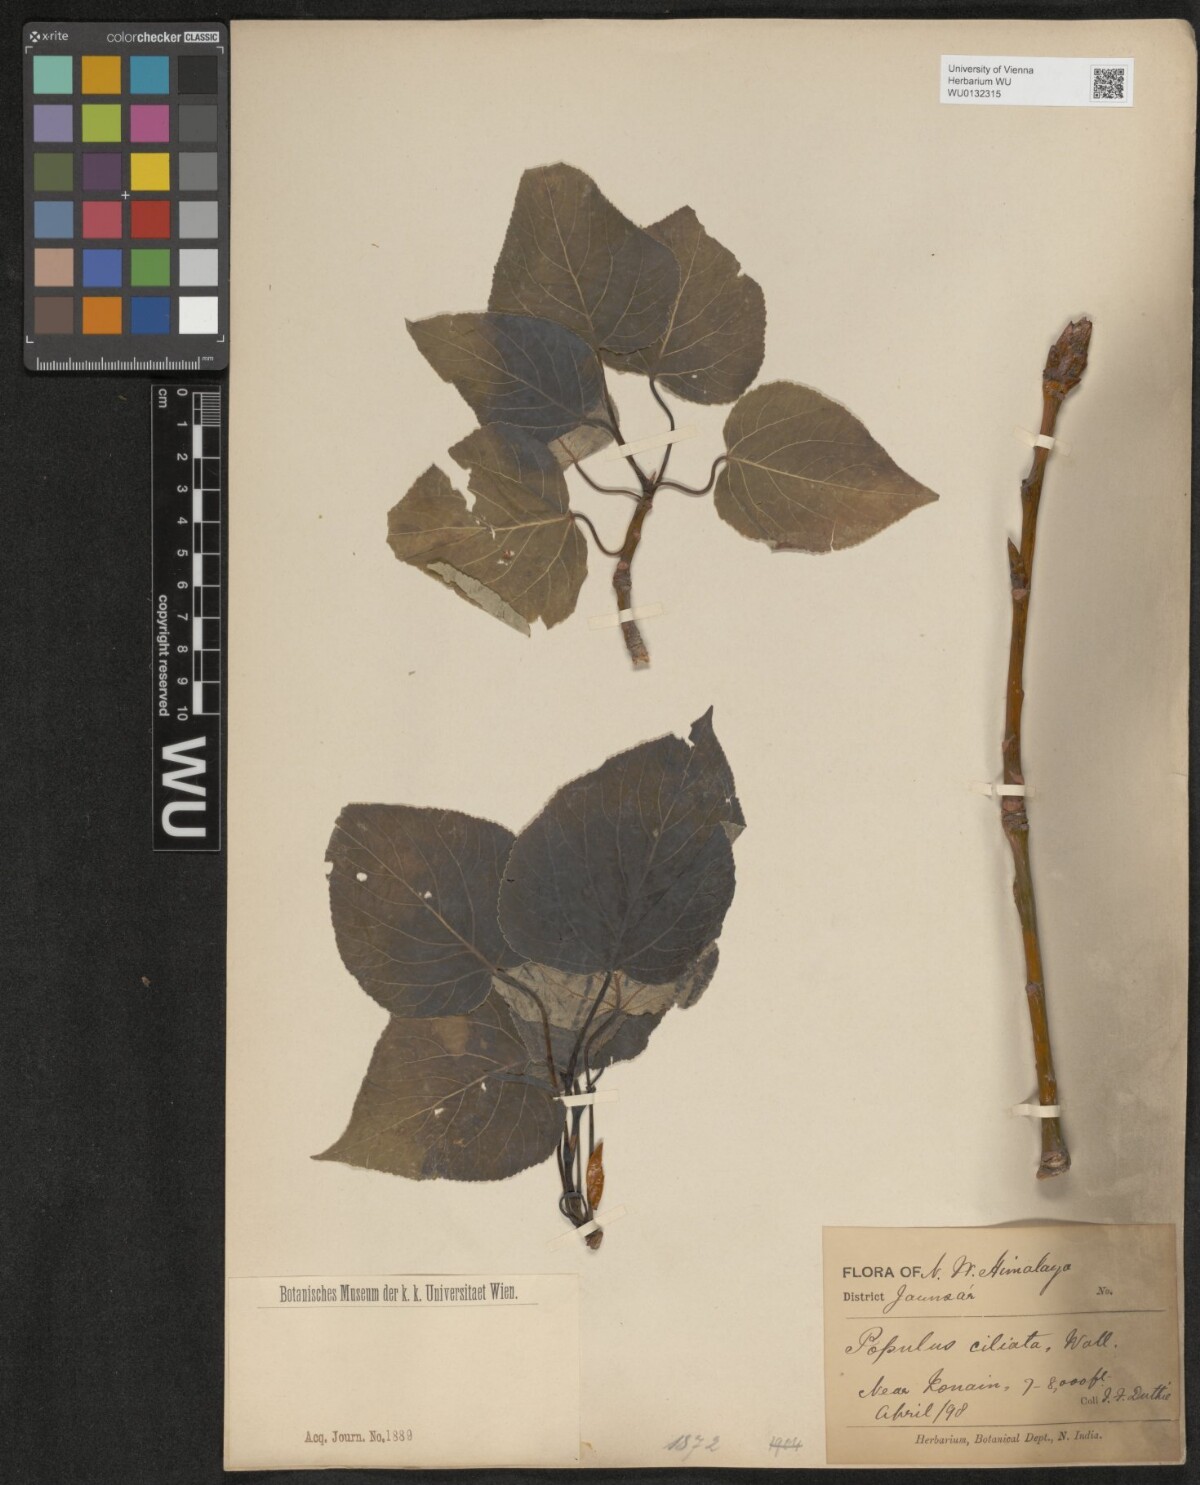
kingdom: Plantae
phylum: Tracheophyta
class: Magnoliopsida
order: Malpighiales
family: Salicaceae
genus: Populus
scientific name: Populus ciliata
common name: Himalayan poplar
